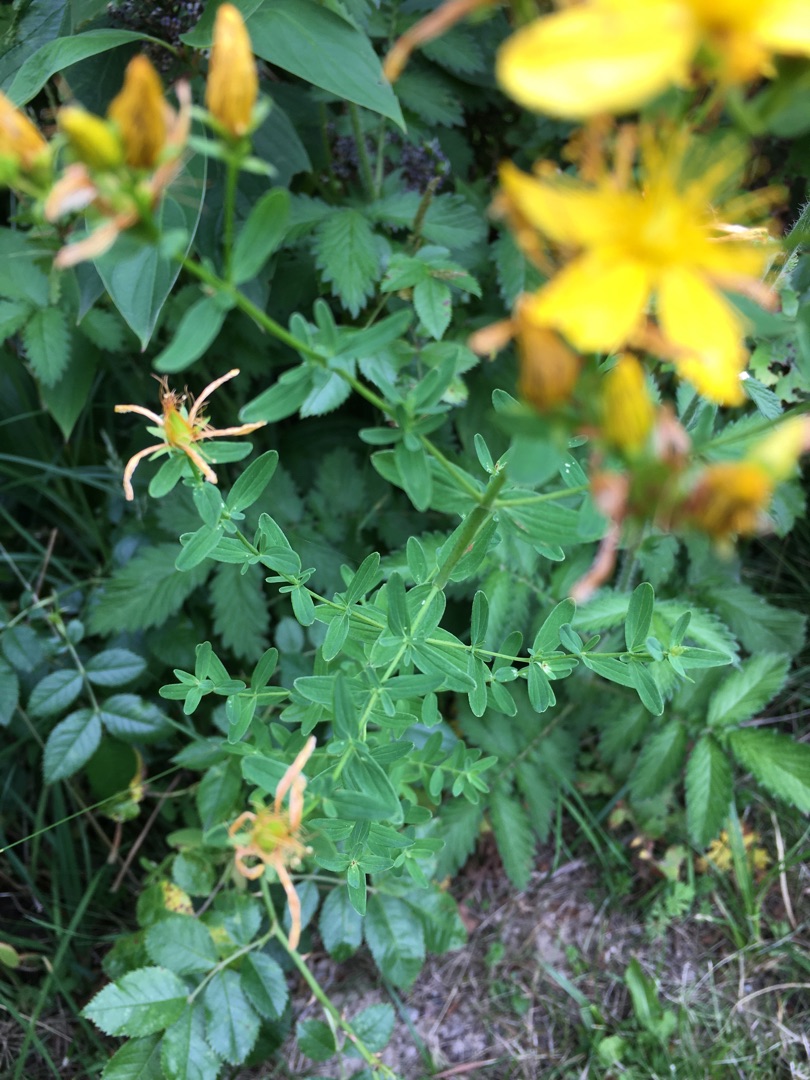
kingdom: Plantae
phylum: Tracheophyta
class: Magnoliopsida
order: Malpighiales
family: Hypericaceae
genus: Hypericum
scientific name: Hypericum perforatum
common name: Prikbladet perikon
